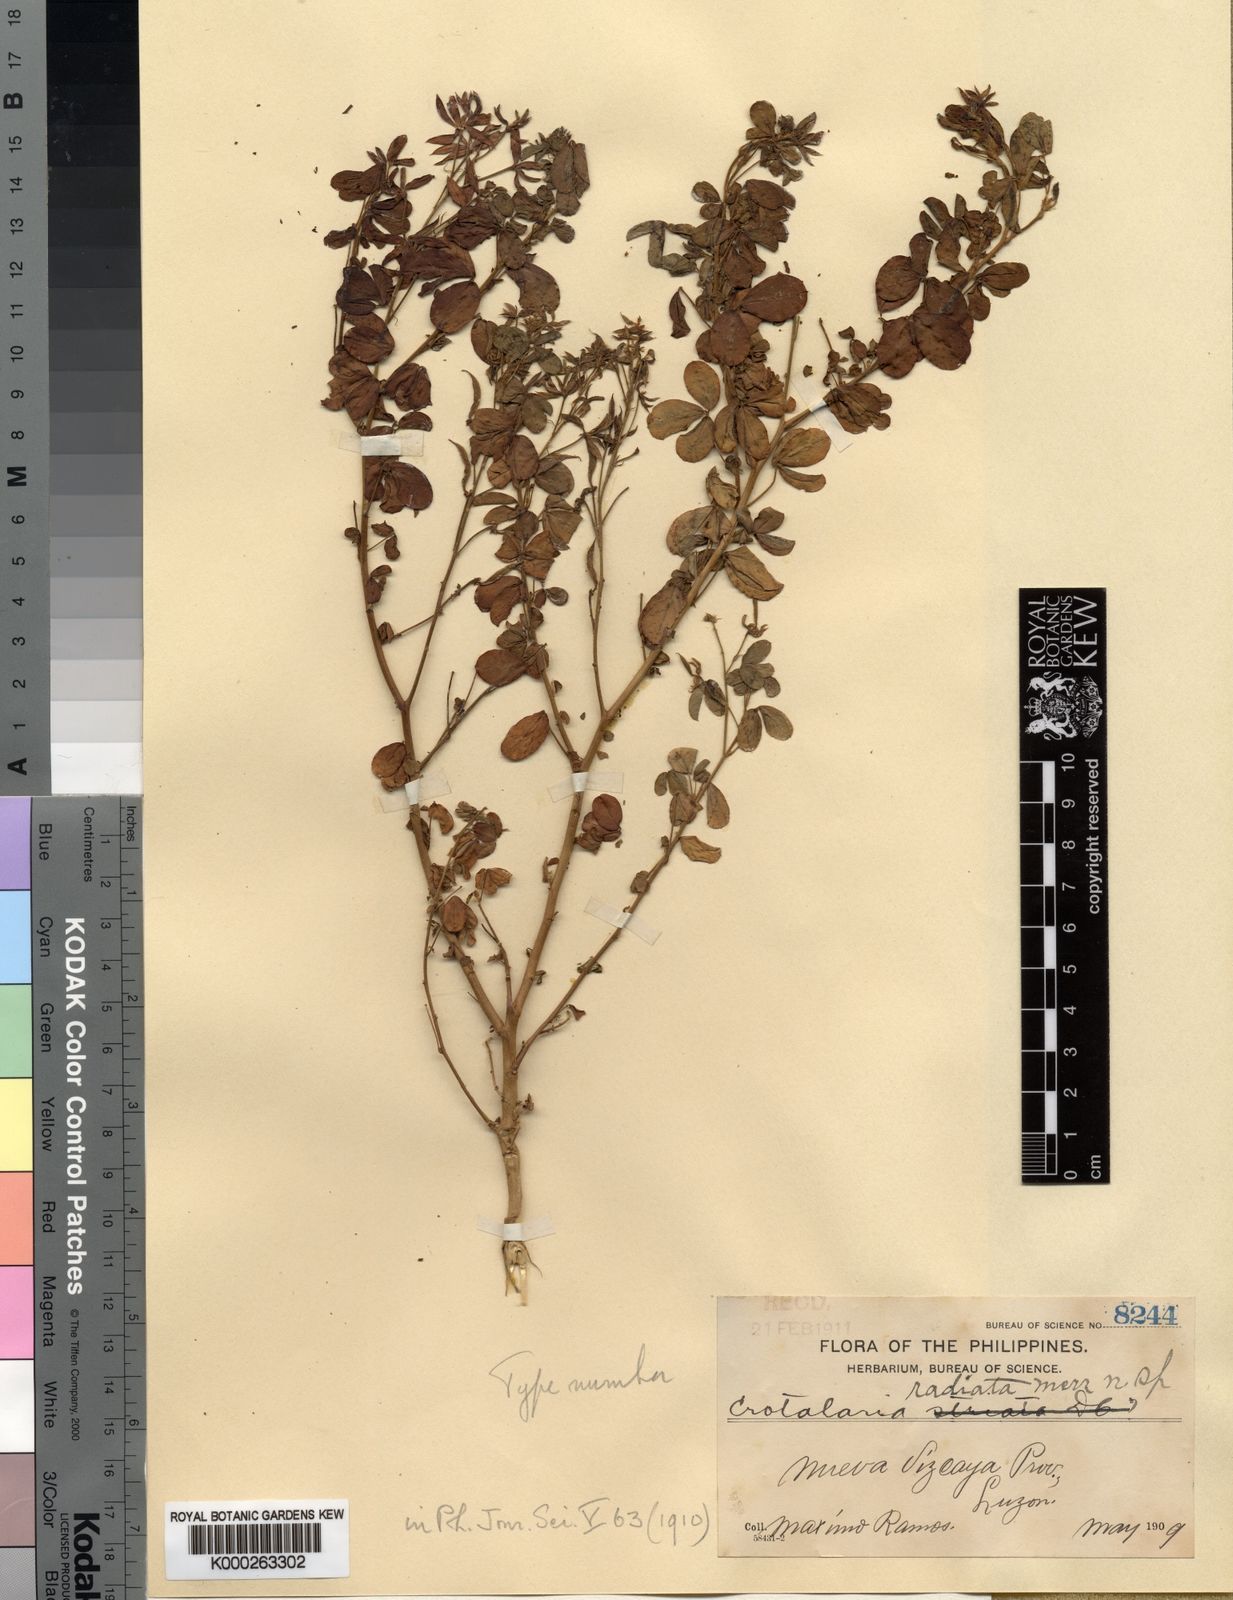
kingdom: Plantae
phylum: Tracheophyta
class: Magnoliopsida
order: Fabales
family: Fabaceae
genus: Crotalaria
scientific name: Crotalaria incana
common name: Shakeshake
